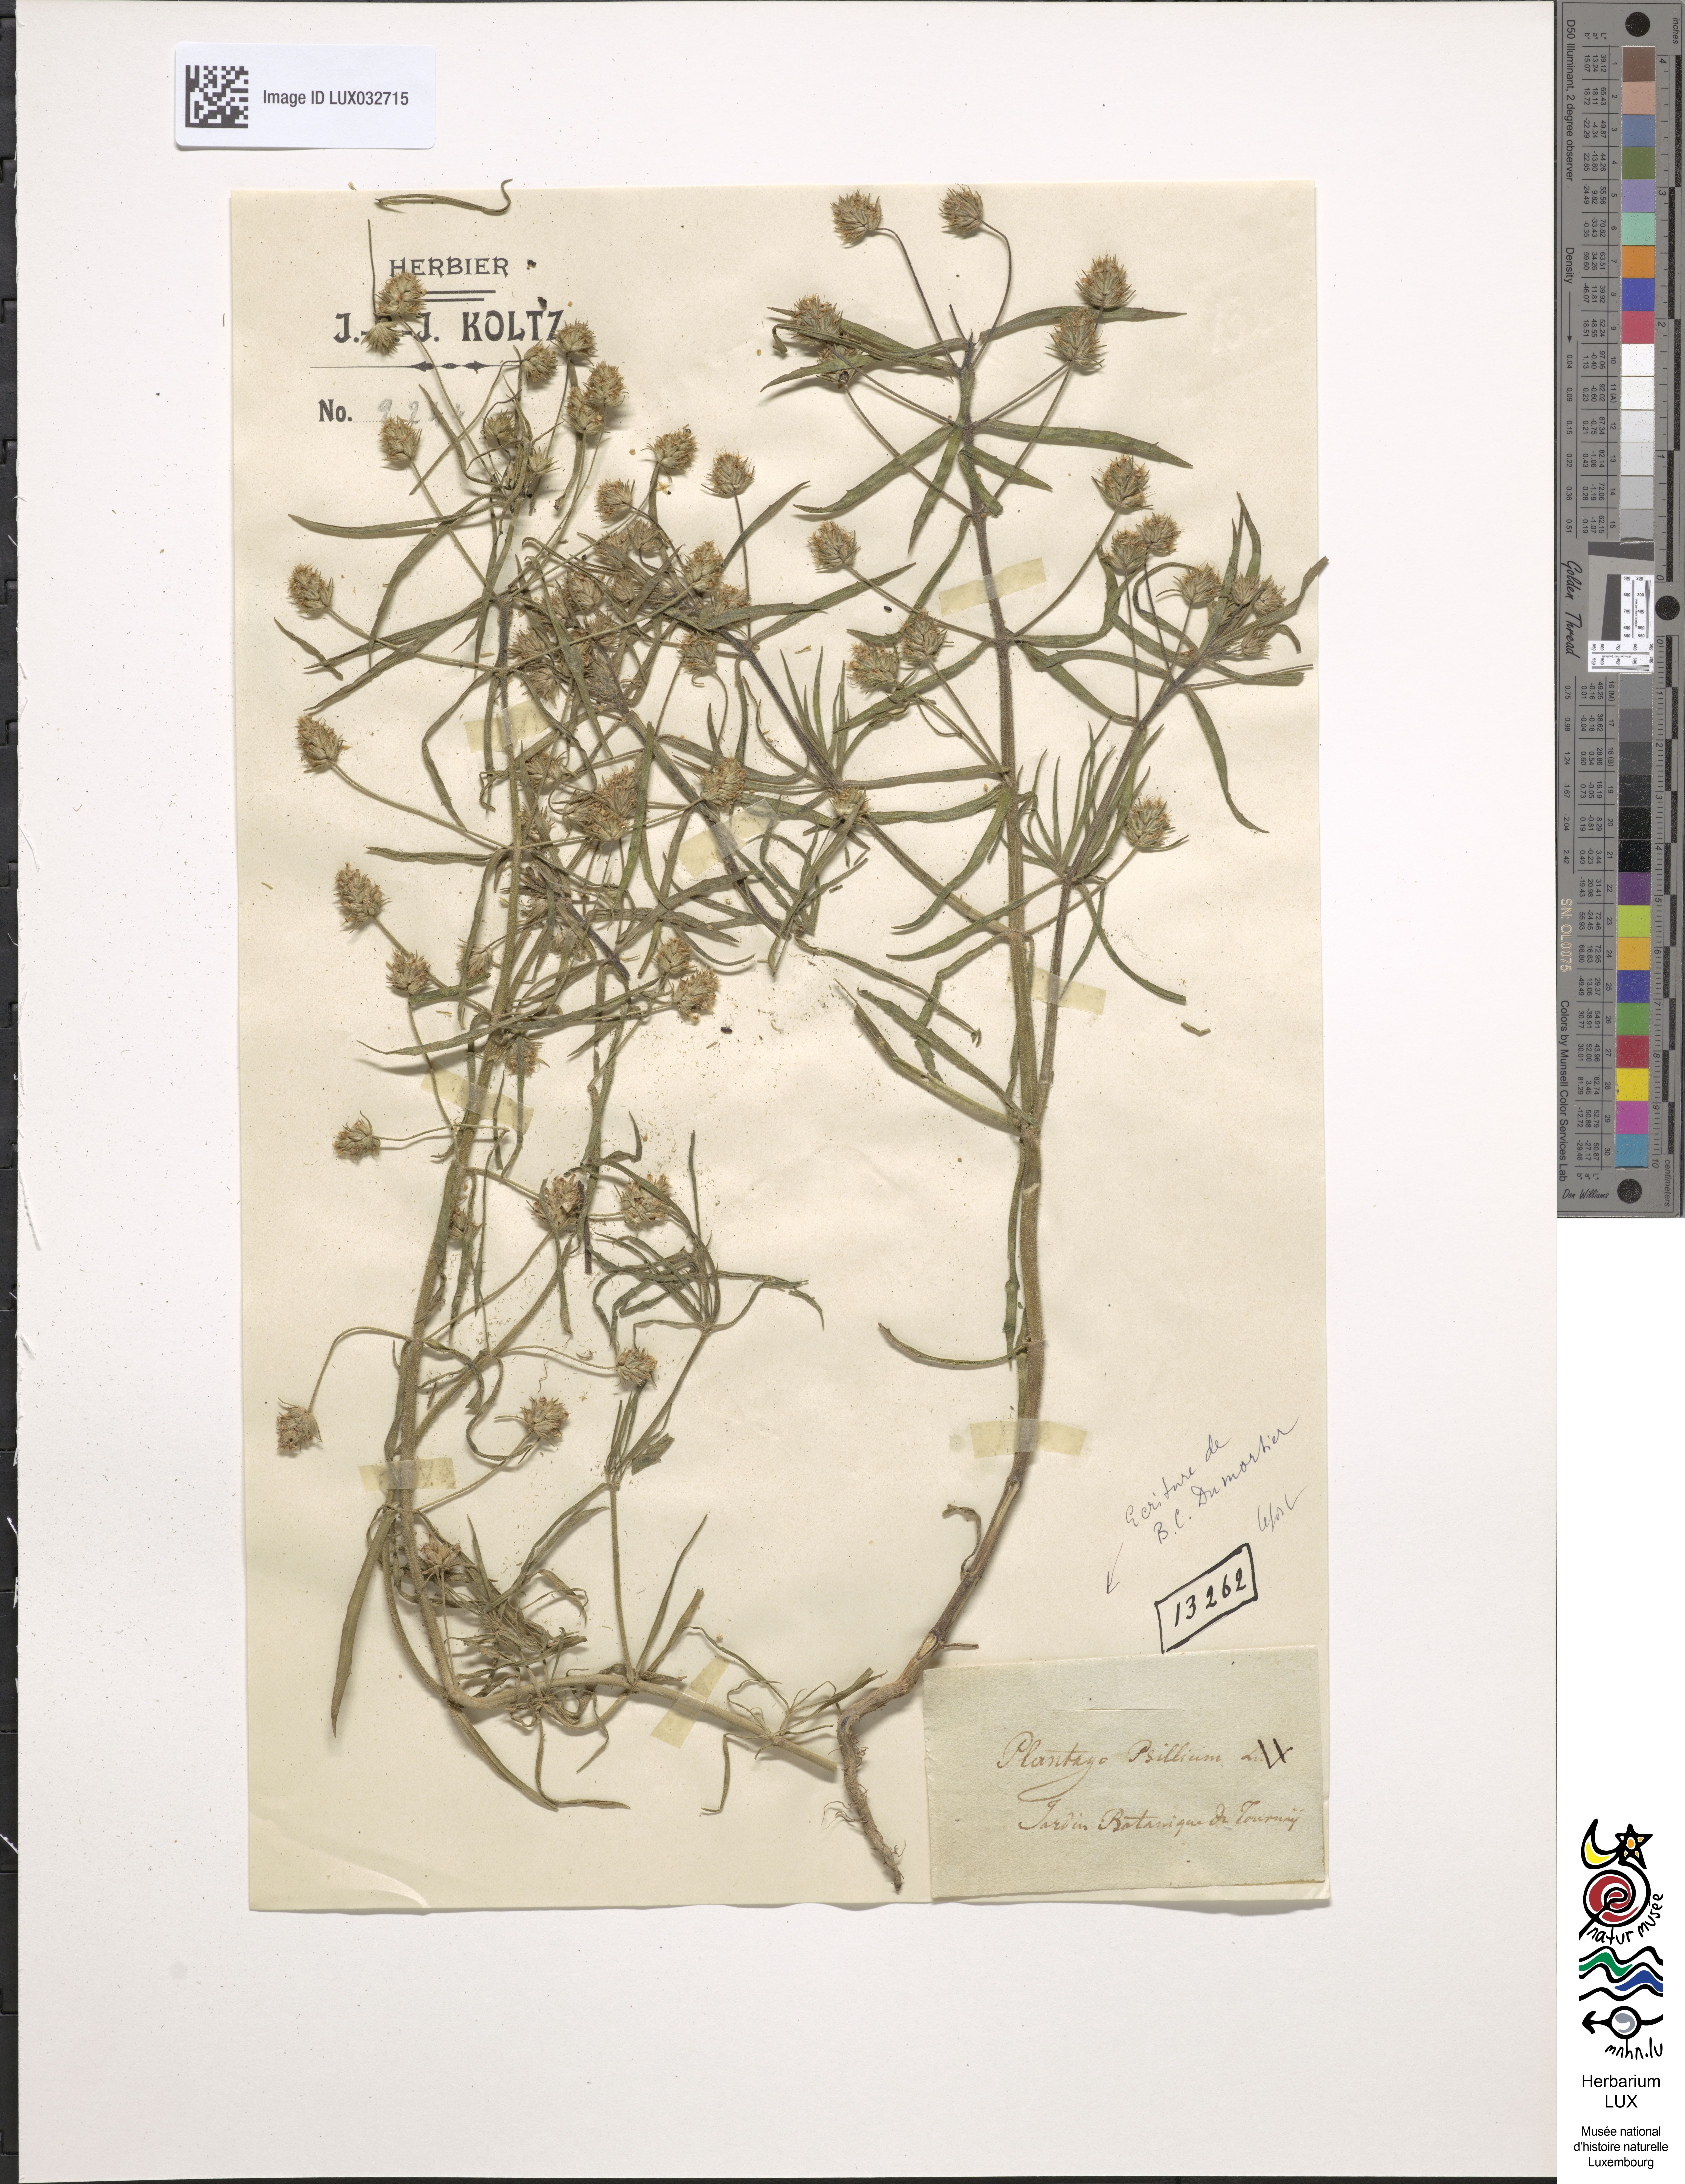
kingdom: Plantae
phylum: Tracheophyta
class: Magnoliopsida
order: Lamiales
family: Plantaginaceae
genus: Plantago
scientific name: Plantago arenaria
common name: Branched plantain
